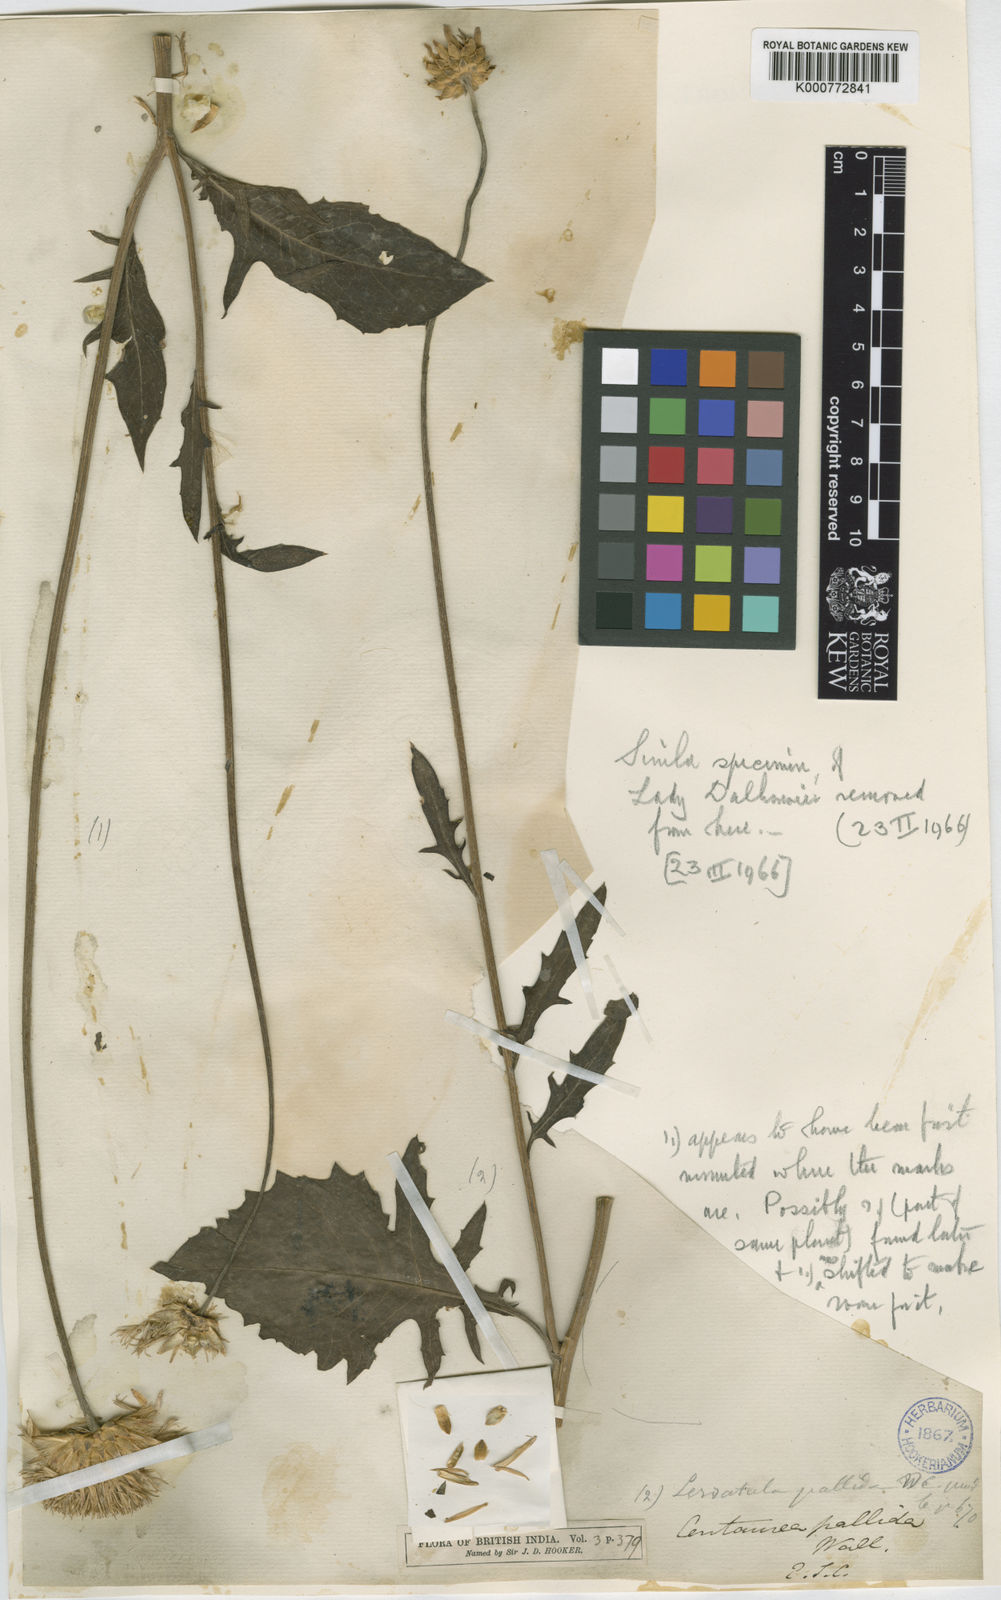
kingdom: Plantae
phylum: Tracheophyta
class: Magnoliopsida
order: Asterales
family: Asteraceae
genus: Klasea
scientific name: Klasea pallida
